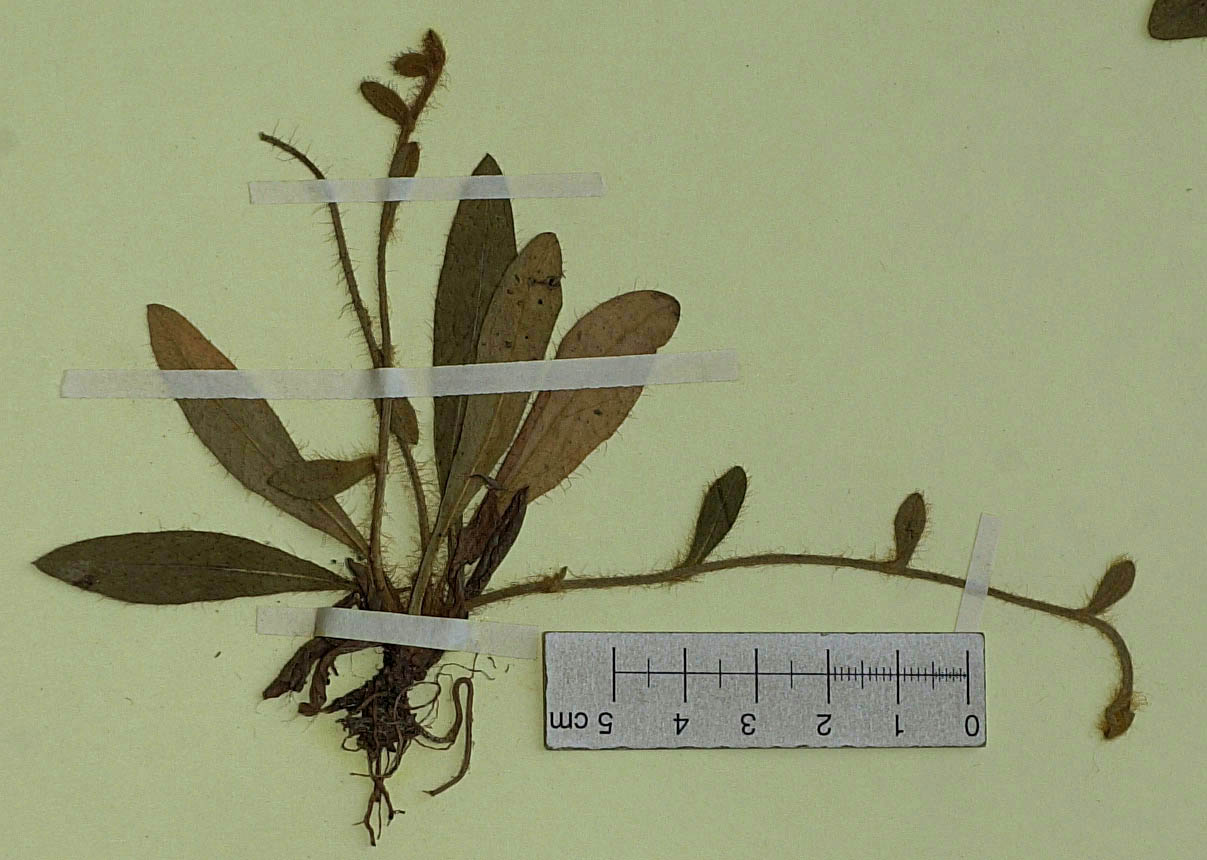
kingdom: Plantae
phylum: Tracheophyta
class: Magnoliopsida
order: Asterales
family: Asteraceae
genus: Pilosella
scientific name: Pilosella acutifolia
